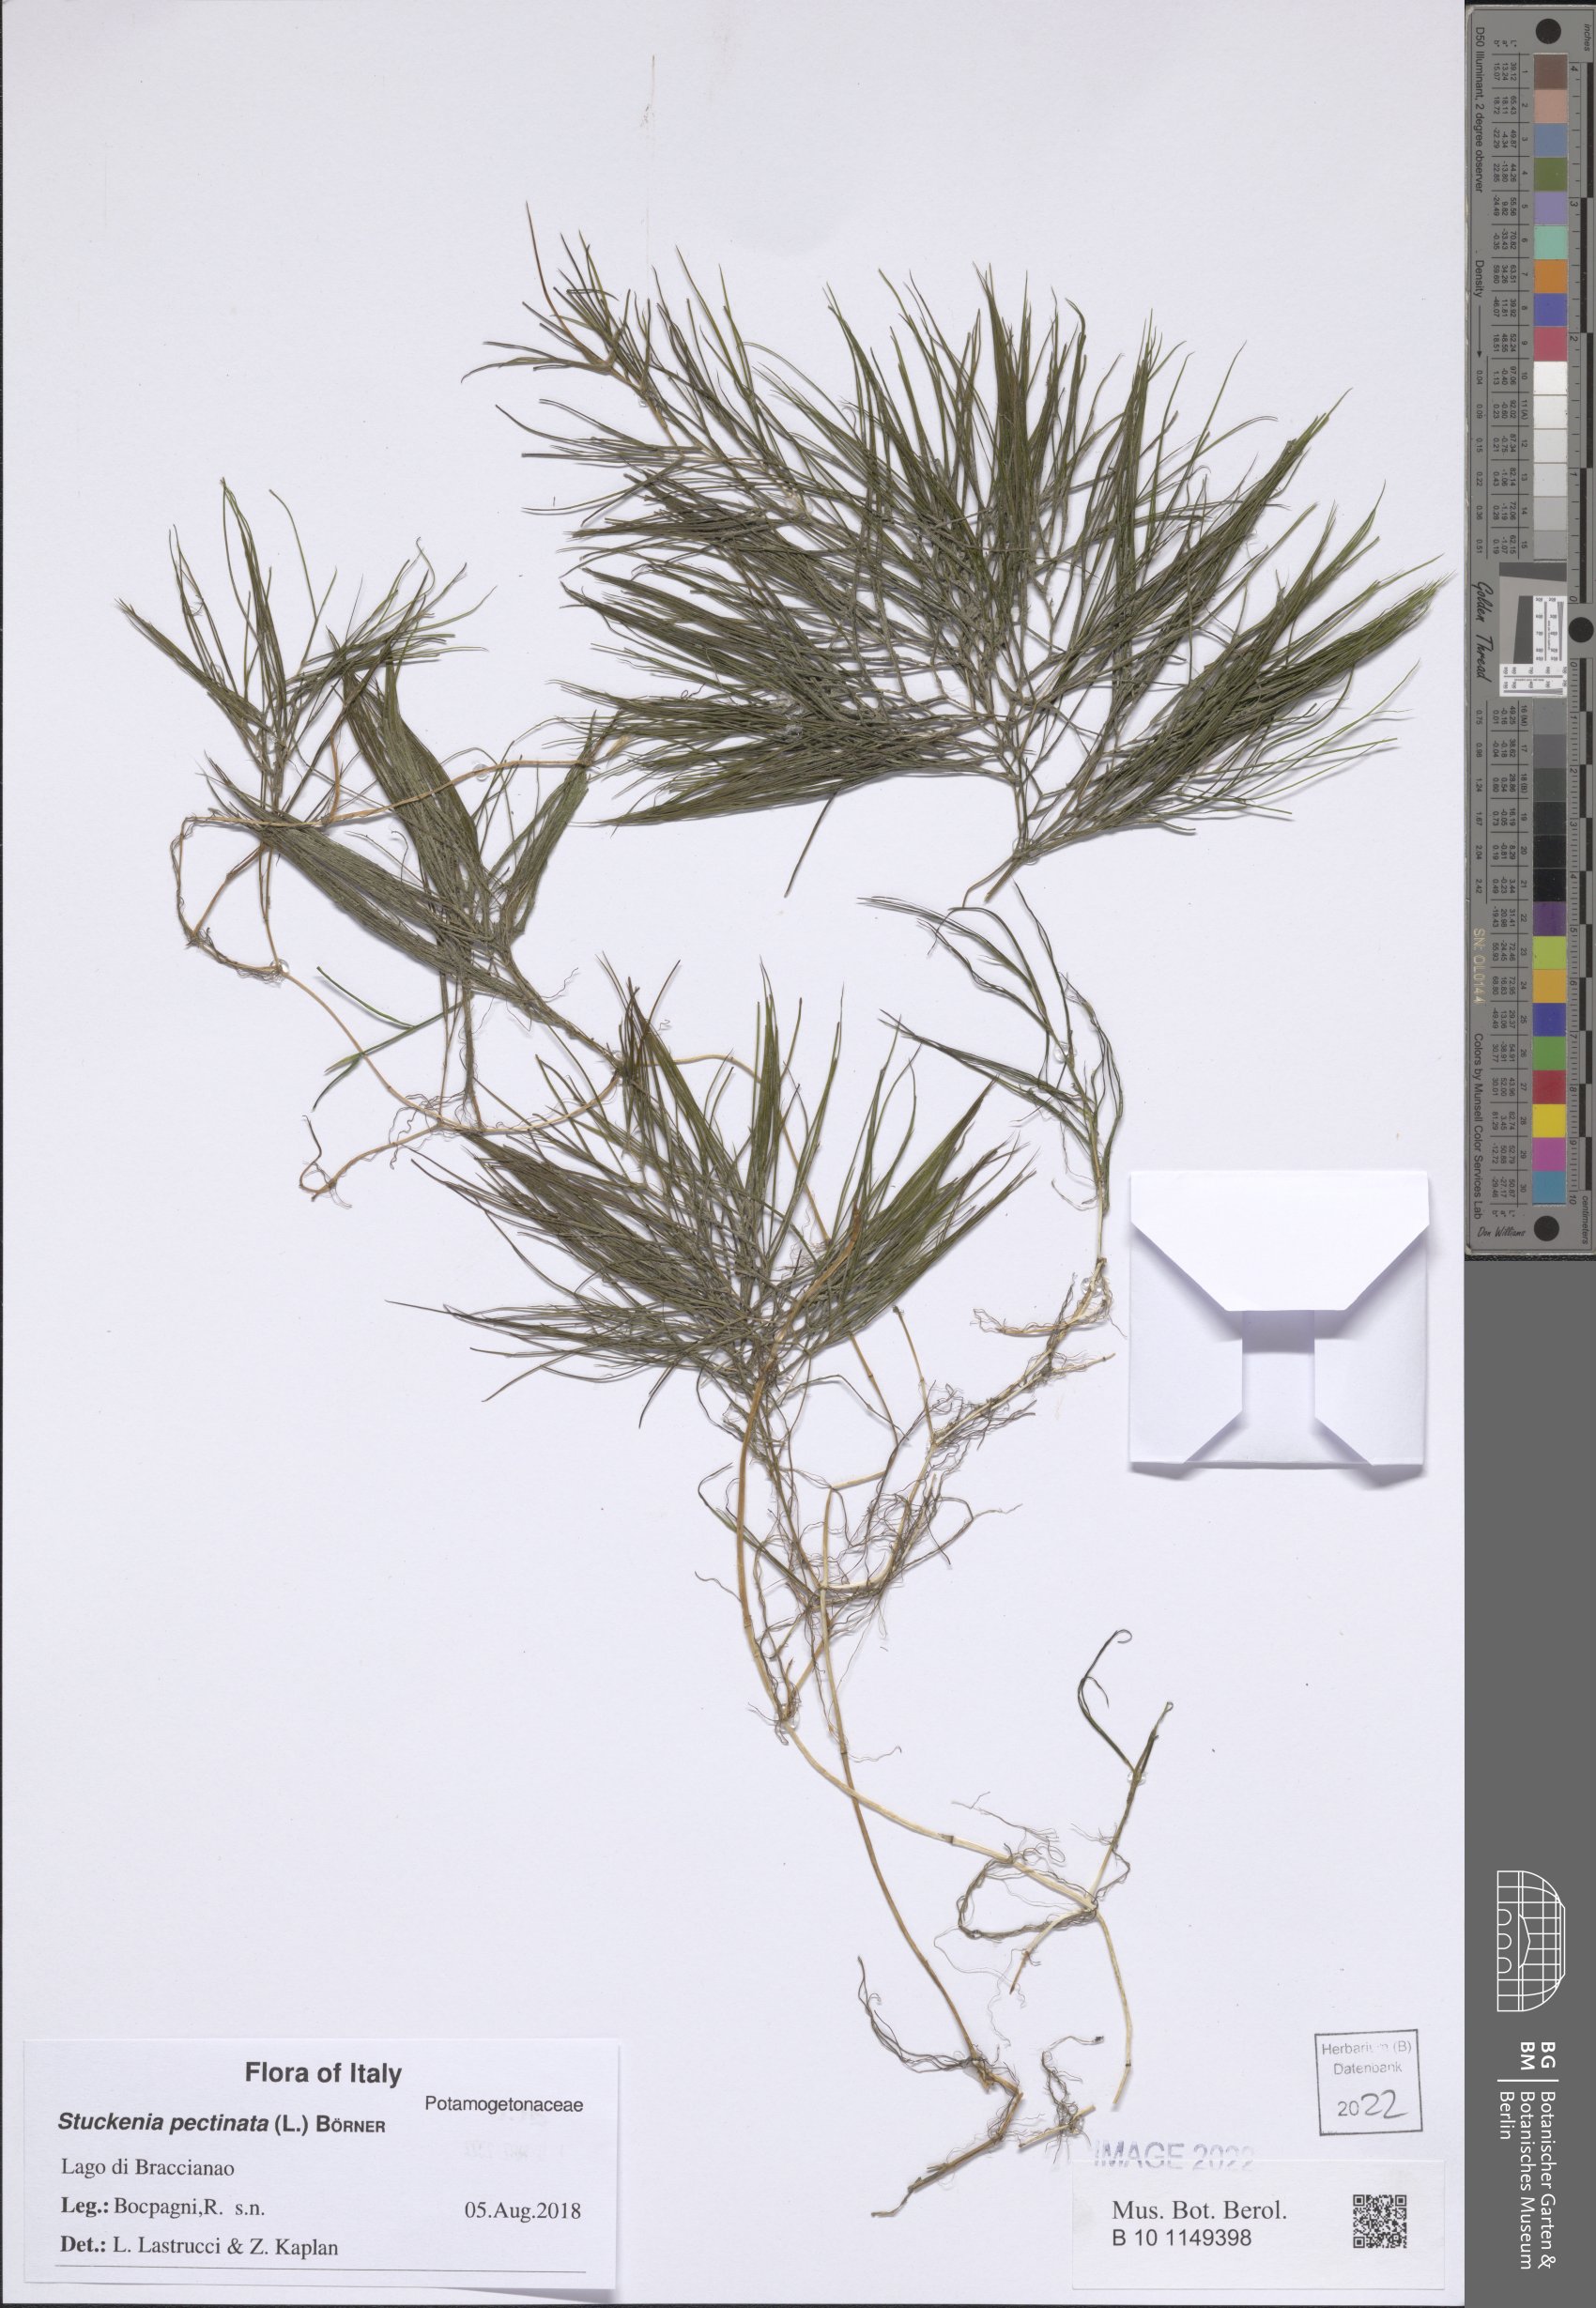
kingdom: Plantae
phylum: Tracheophyta
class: Liliopsida
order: Alismatales
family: Potamogetonaceae
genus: Stuckenia
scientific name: Stuckenia pectinata
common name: Sago pondweed
